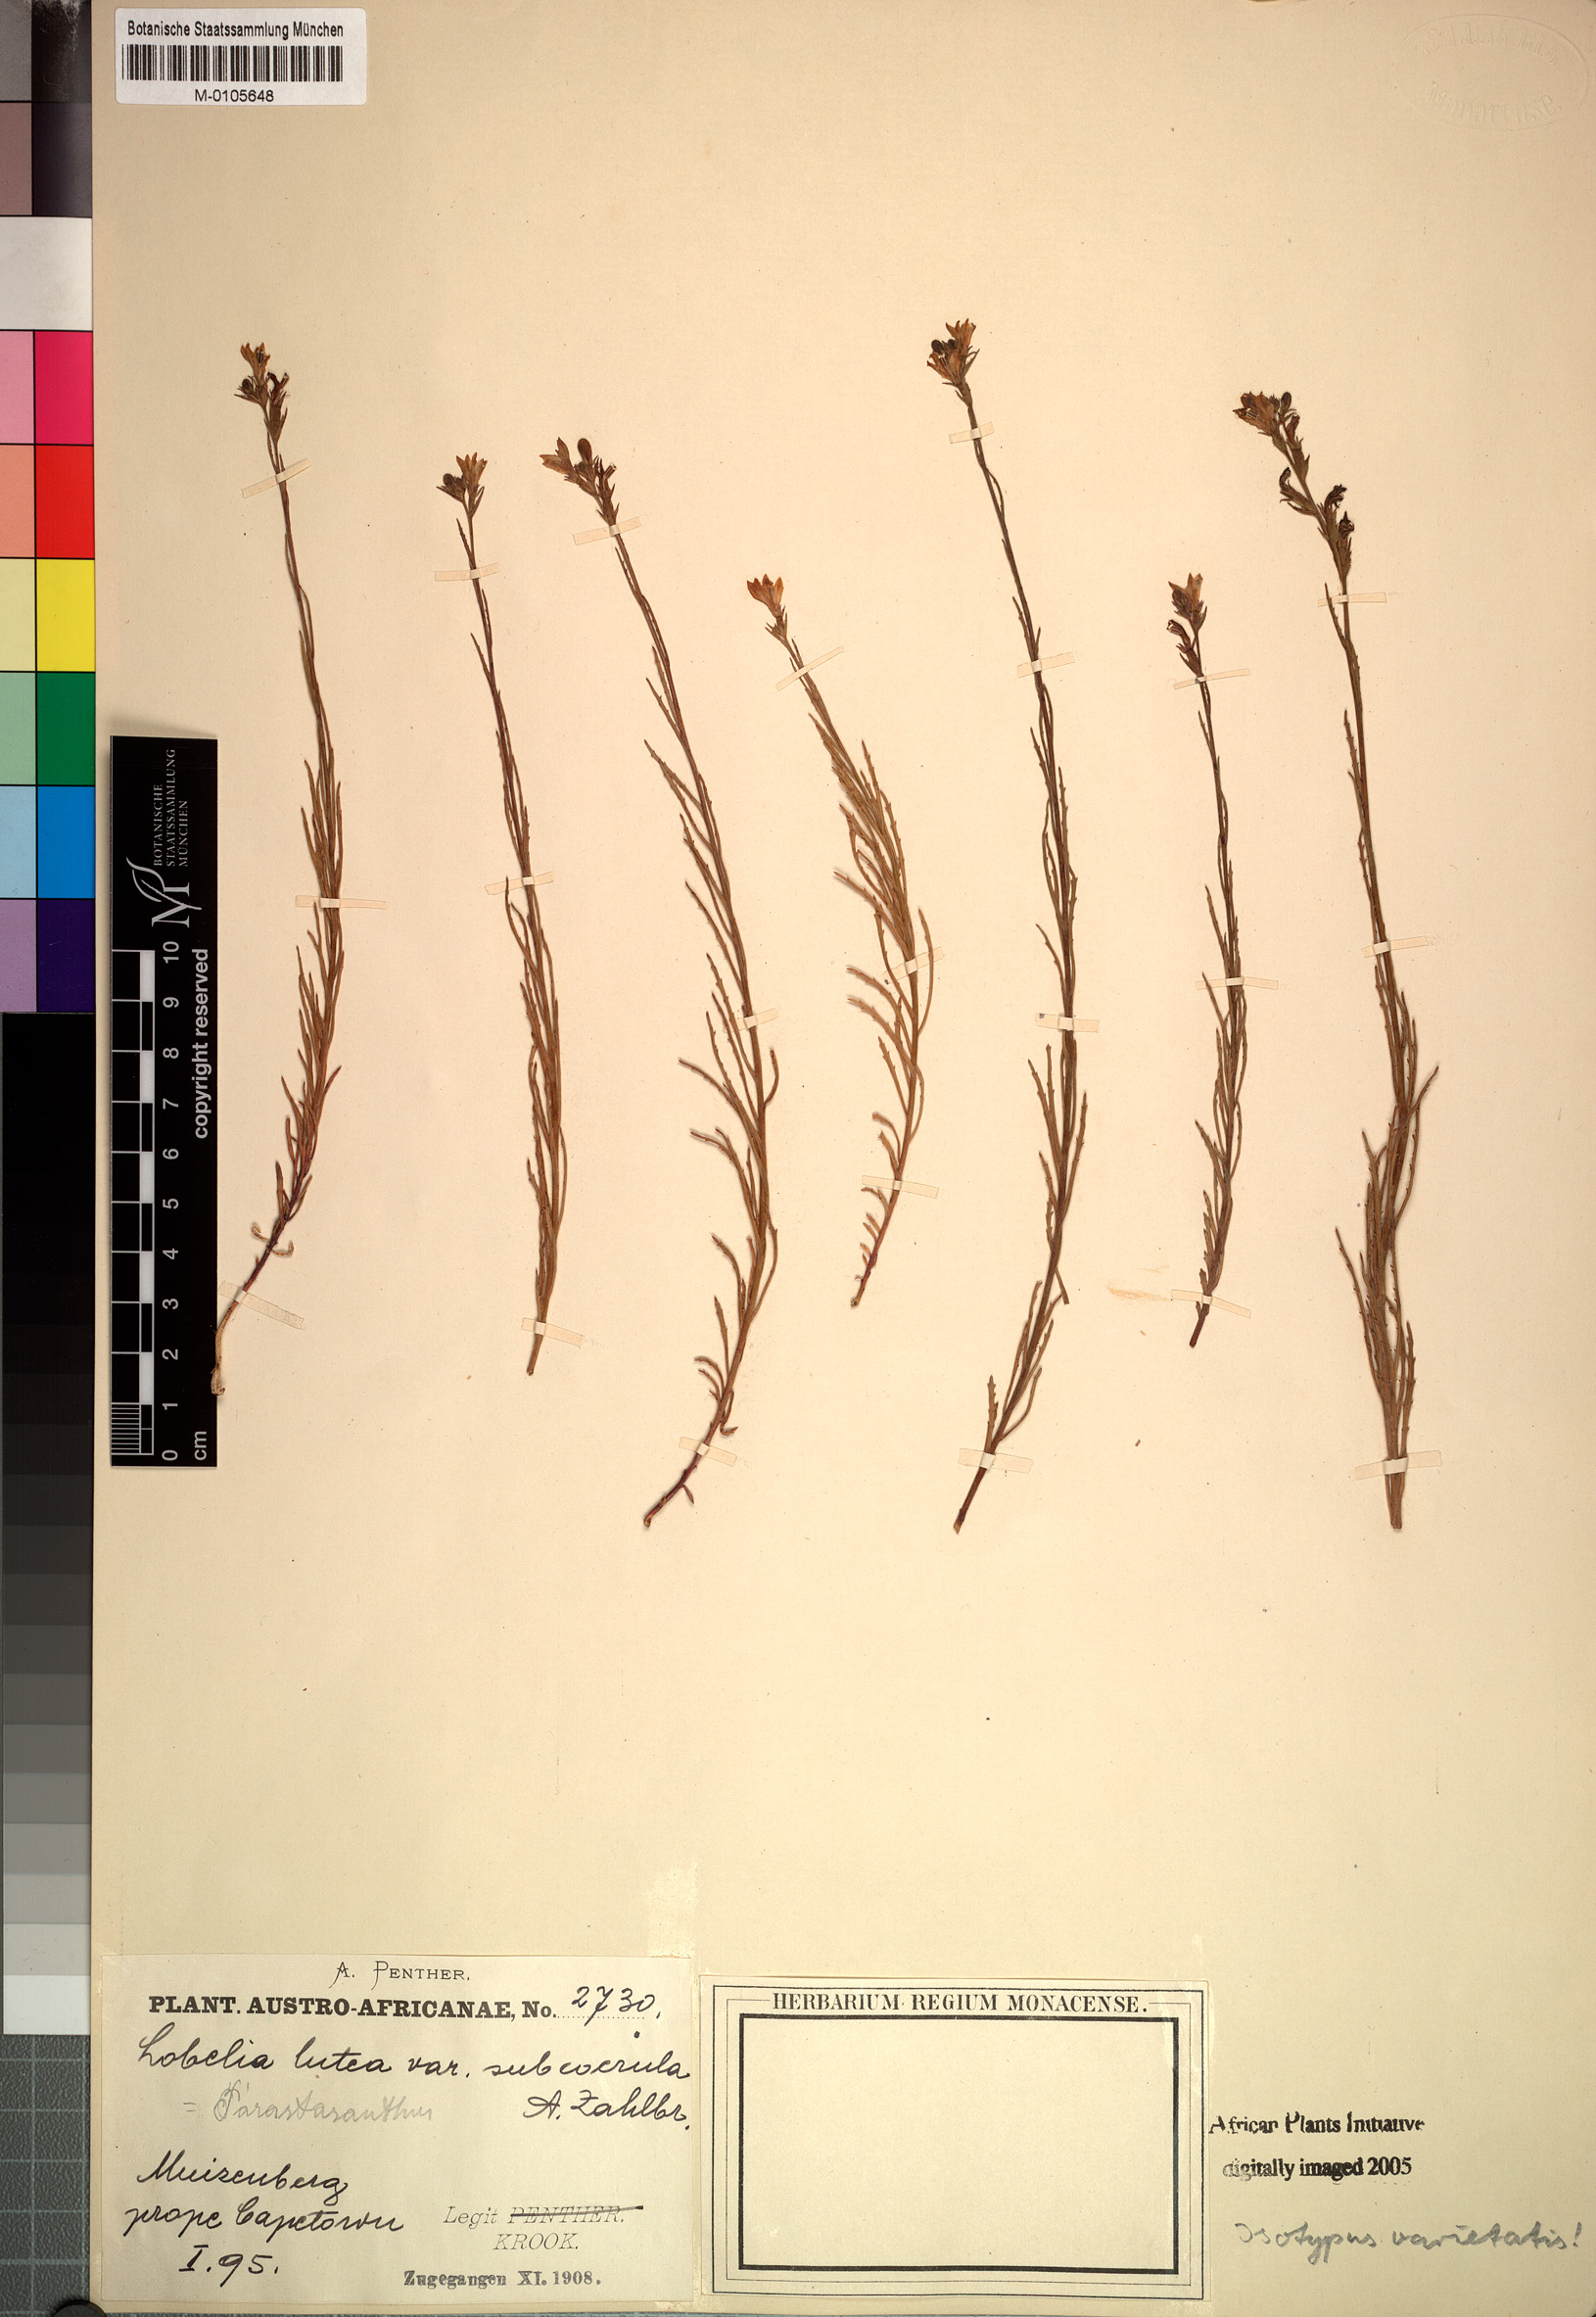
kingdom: Plantae
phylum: Tracheophyta
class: Magnoliopsida
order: Asterales
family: Campanulaceae
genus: Monopsis
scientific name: Monopsis lutea
